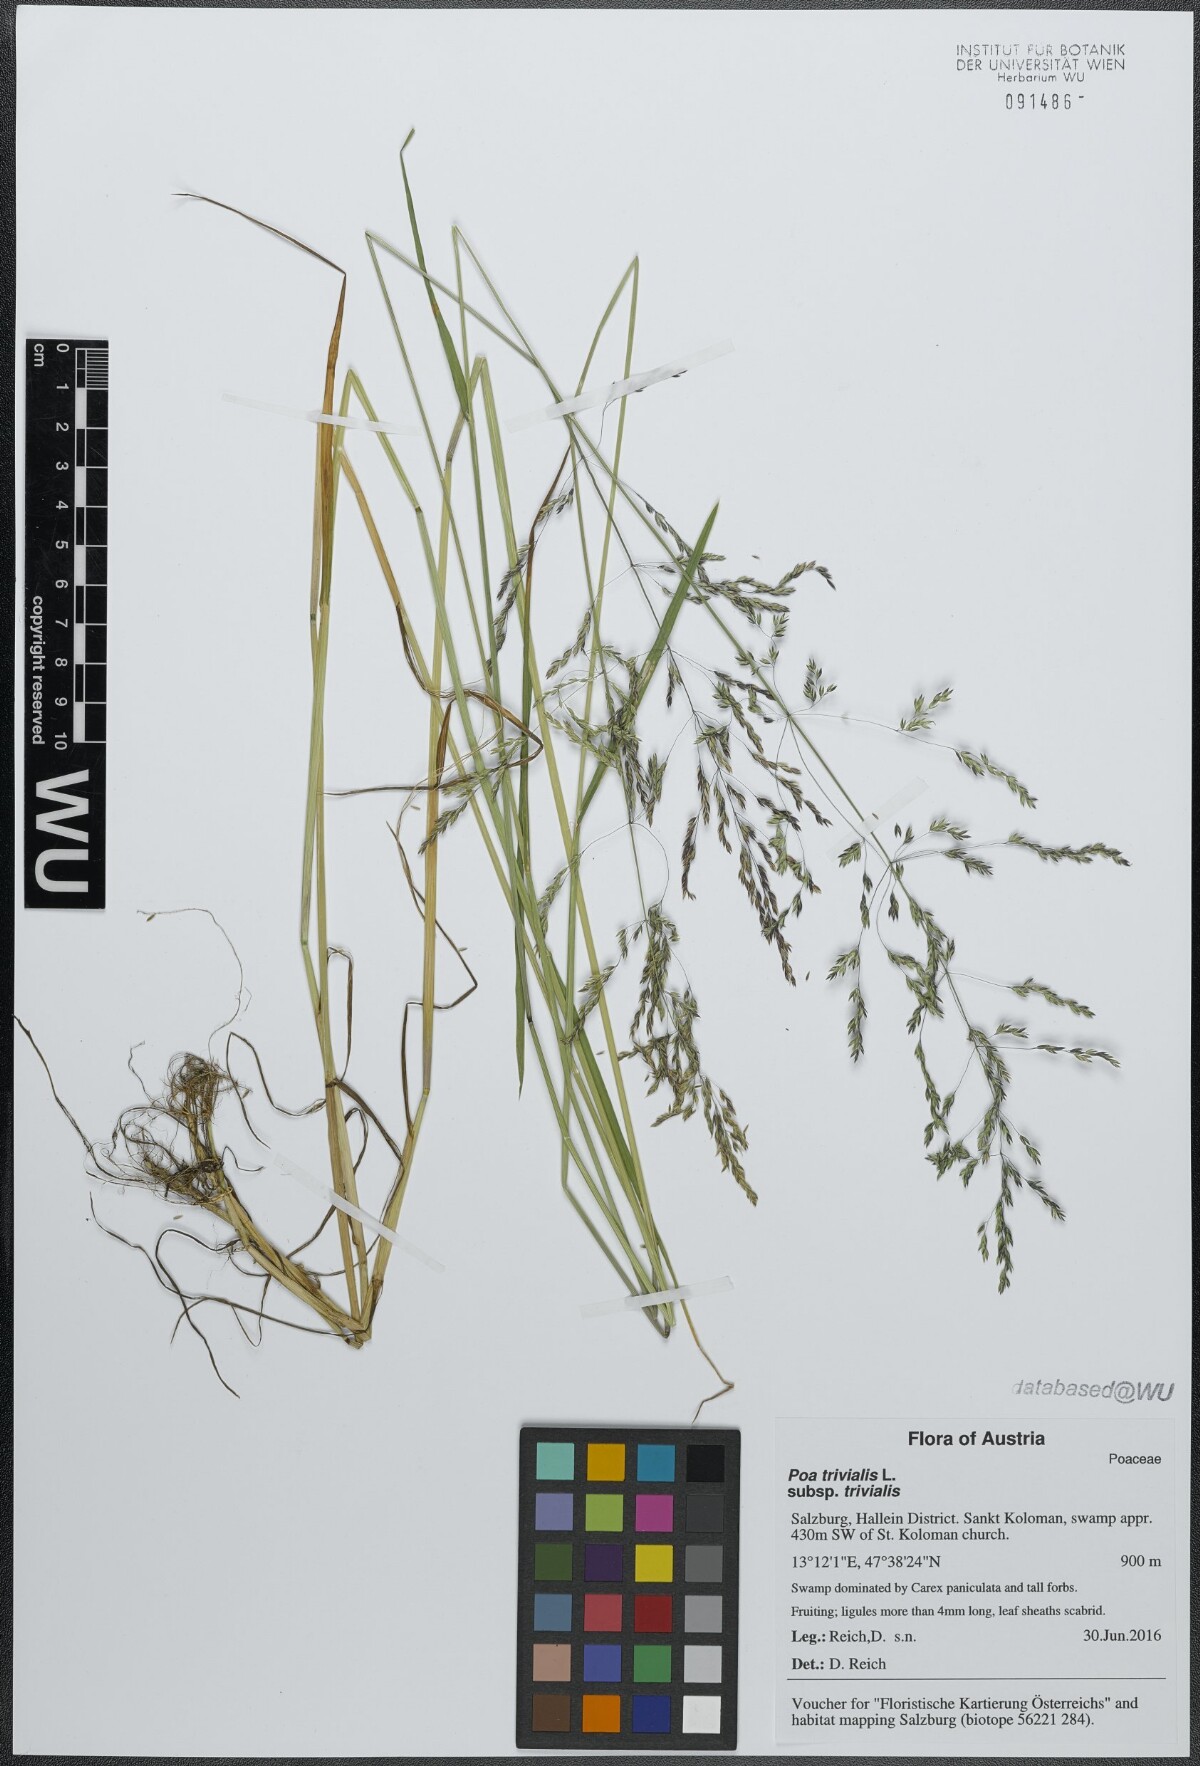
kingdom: Plantae
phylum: Tracheophyta
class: Liliopsida
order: Poales
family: Poaceae
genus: Poa
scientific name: Poa trivialis
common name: Rough bluegrass
